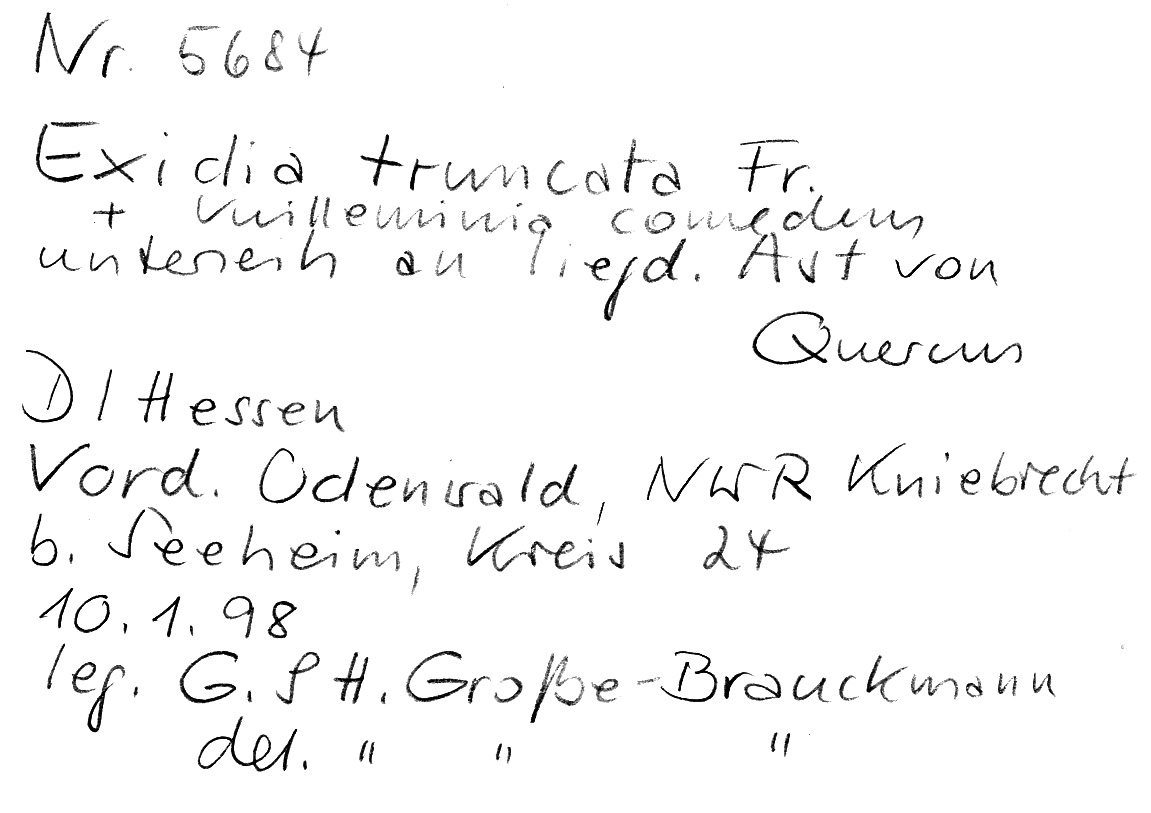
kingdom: Fungi
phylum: Basidiomycota
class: Agaricomycetes
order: Auriculariales
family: Auriculariaceae
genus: Exidia
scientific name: Exidia glandulosa
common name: Witches' butter
